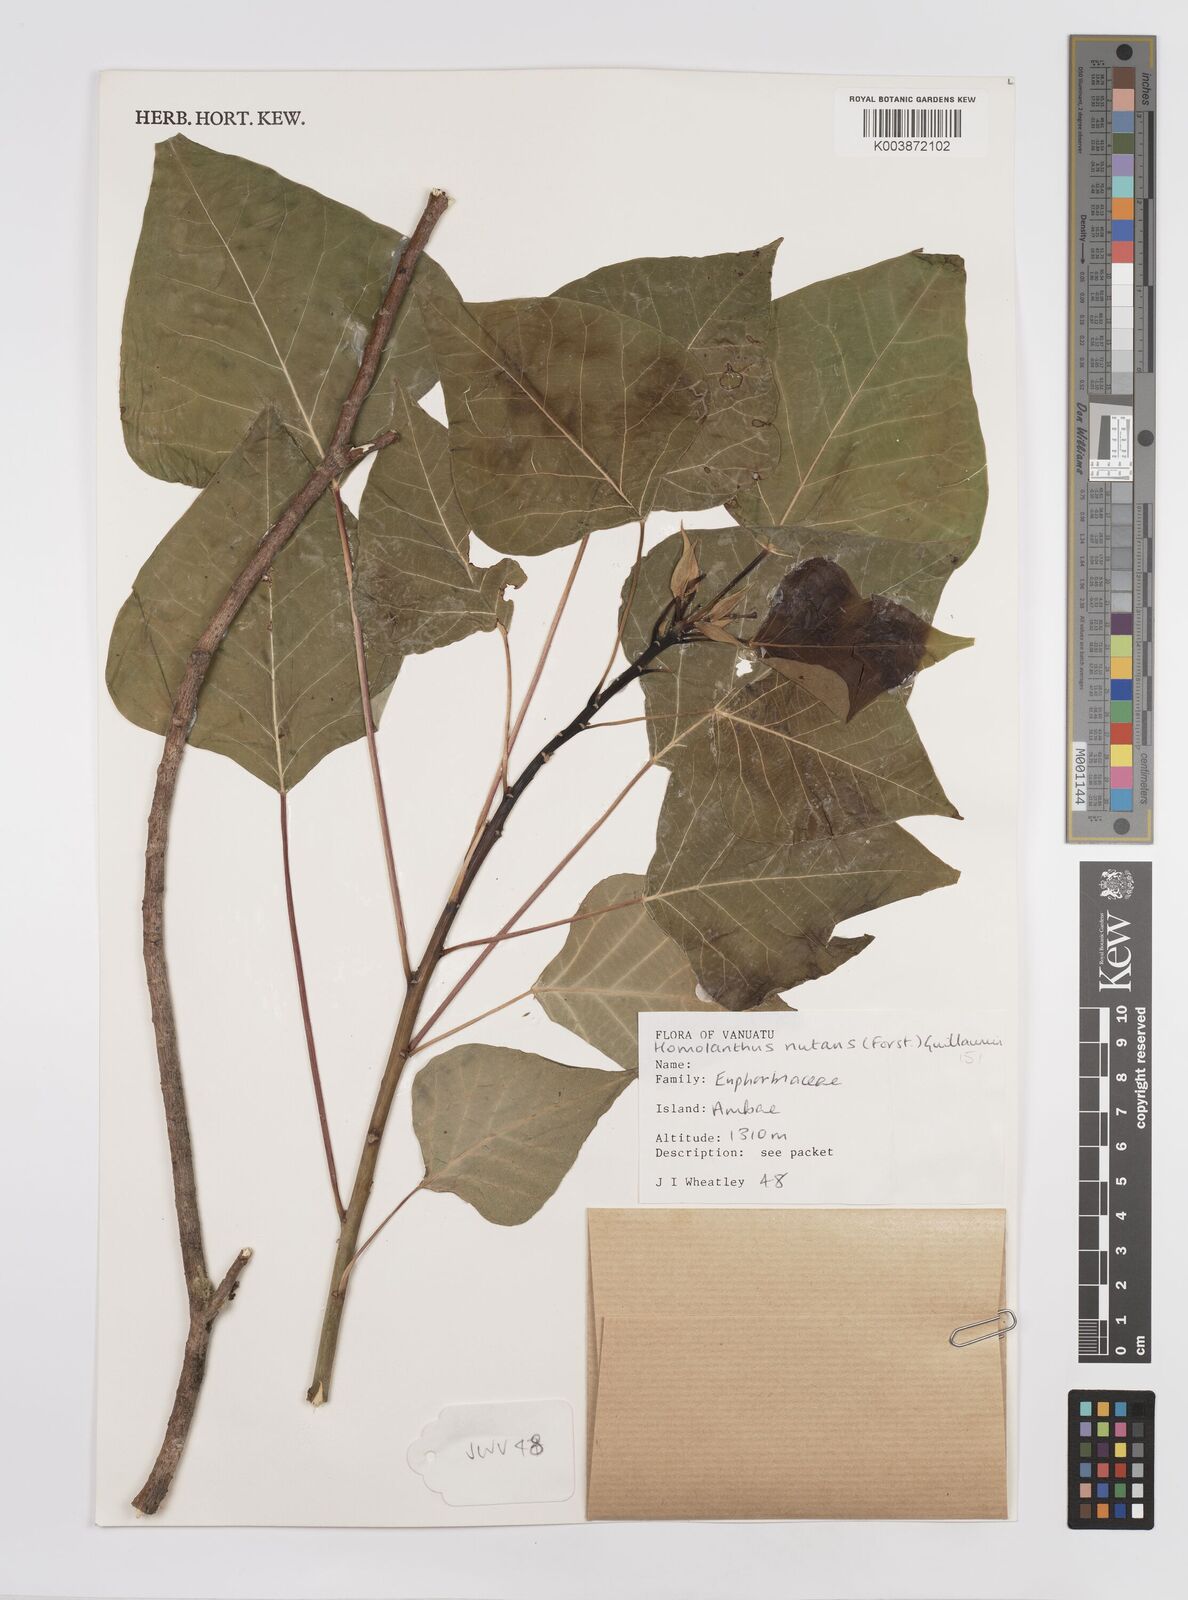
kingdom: Plantae
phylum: Tracheophyta
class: Magnoliopsida
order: Malpighiales
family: Euphorbiaceae
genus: Homalanthus
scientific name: Homalanthus nutans
